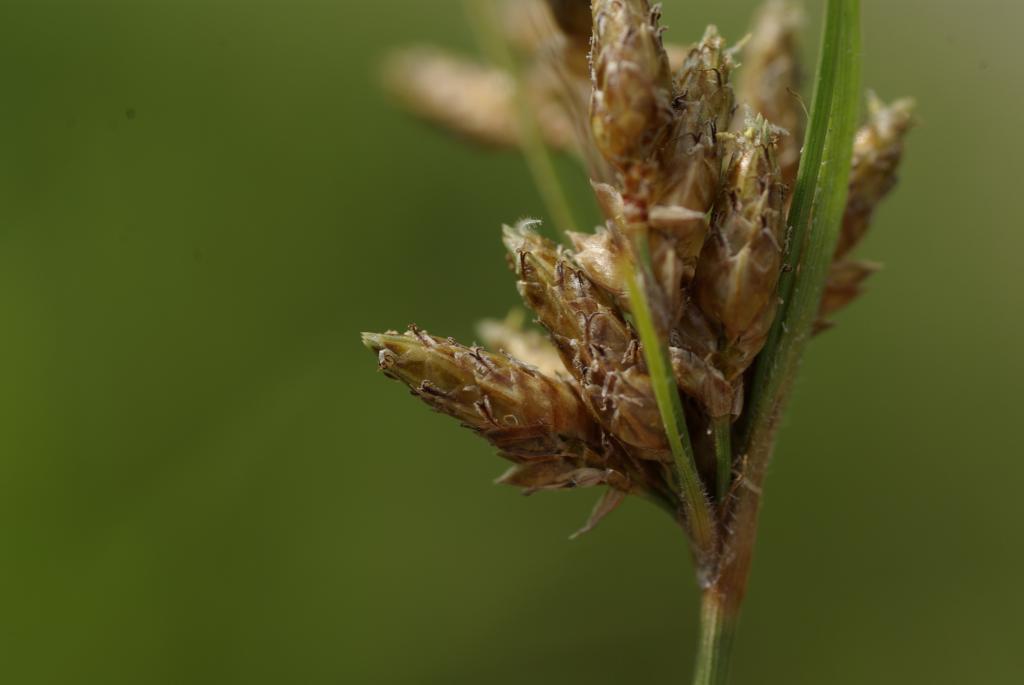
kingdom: Plantae
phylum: Tracheophyta
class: Liliopsida
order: Poales
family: Cyperaceae
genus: Fimbristylis
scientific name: Fimbristylis dichotoma
